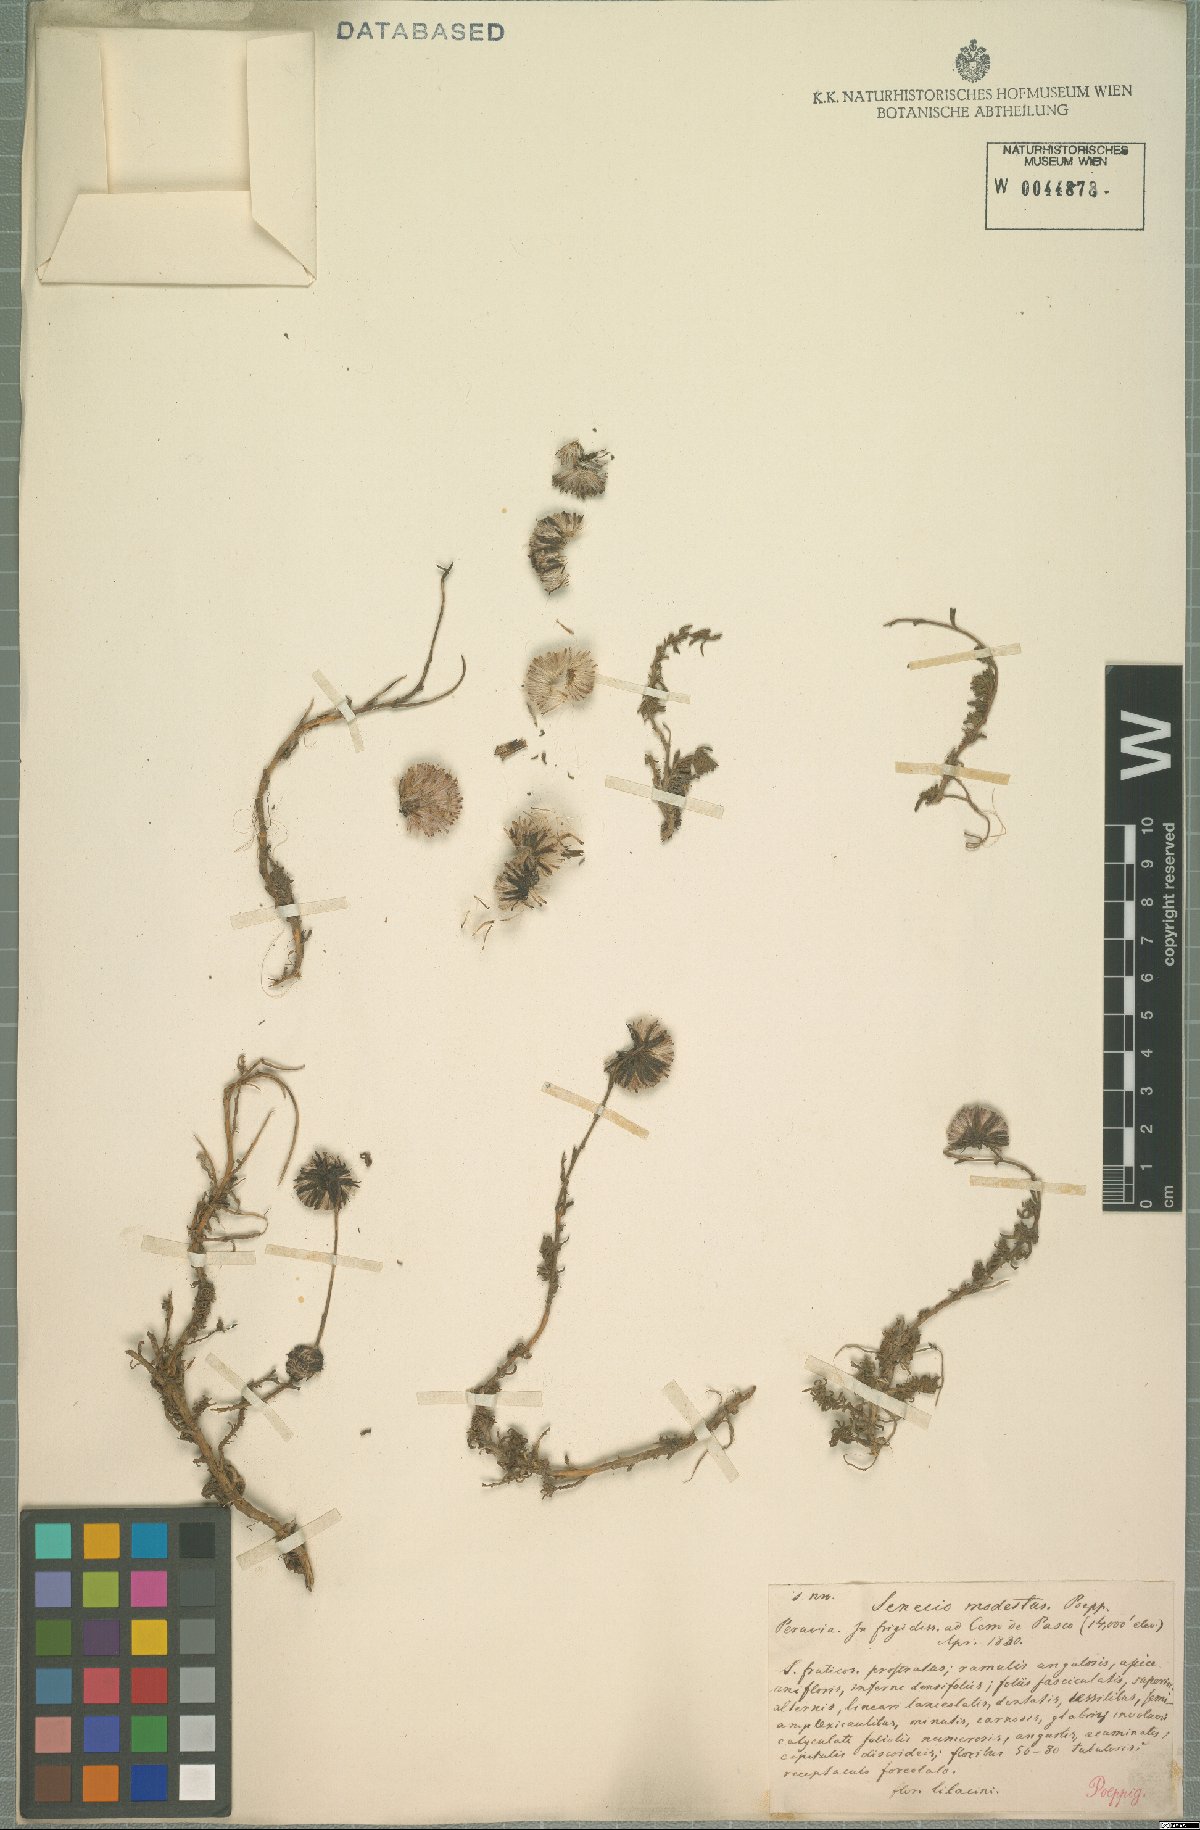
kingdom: Plantae
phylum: Tracheophyta
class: Magnoliopsida
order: Asterales
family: Asteraceae
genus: Culcitium
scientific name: Culcitium humile
